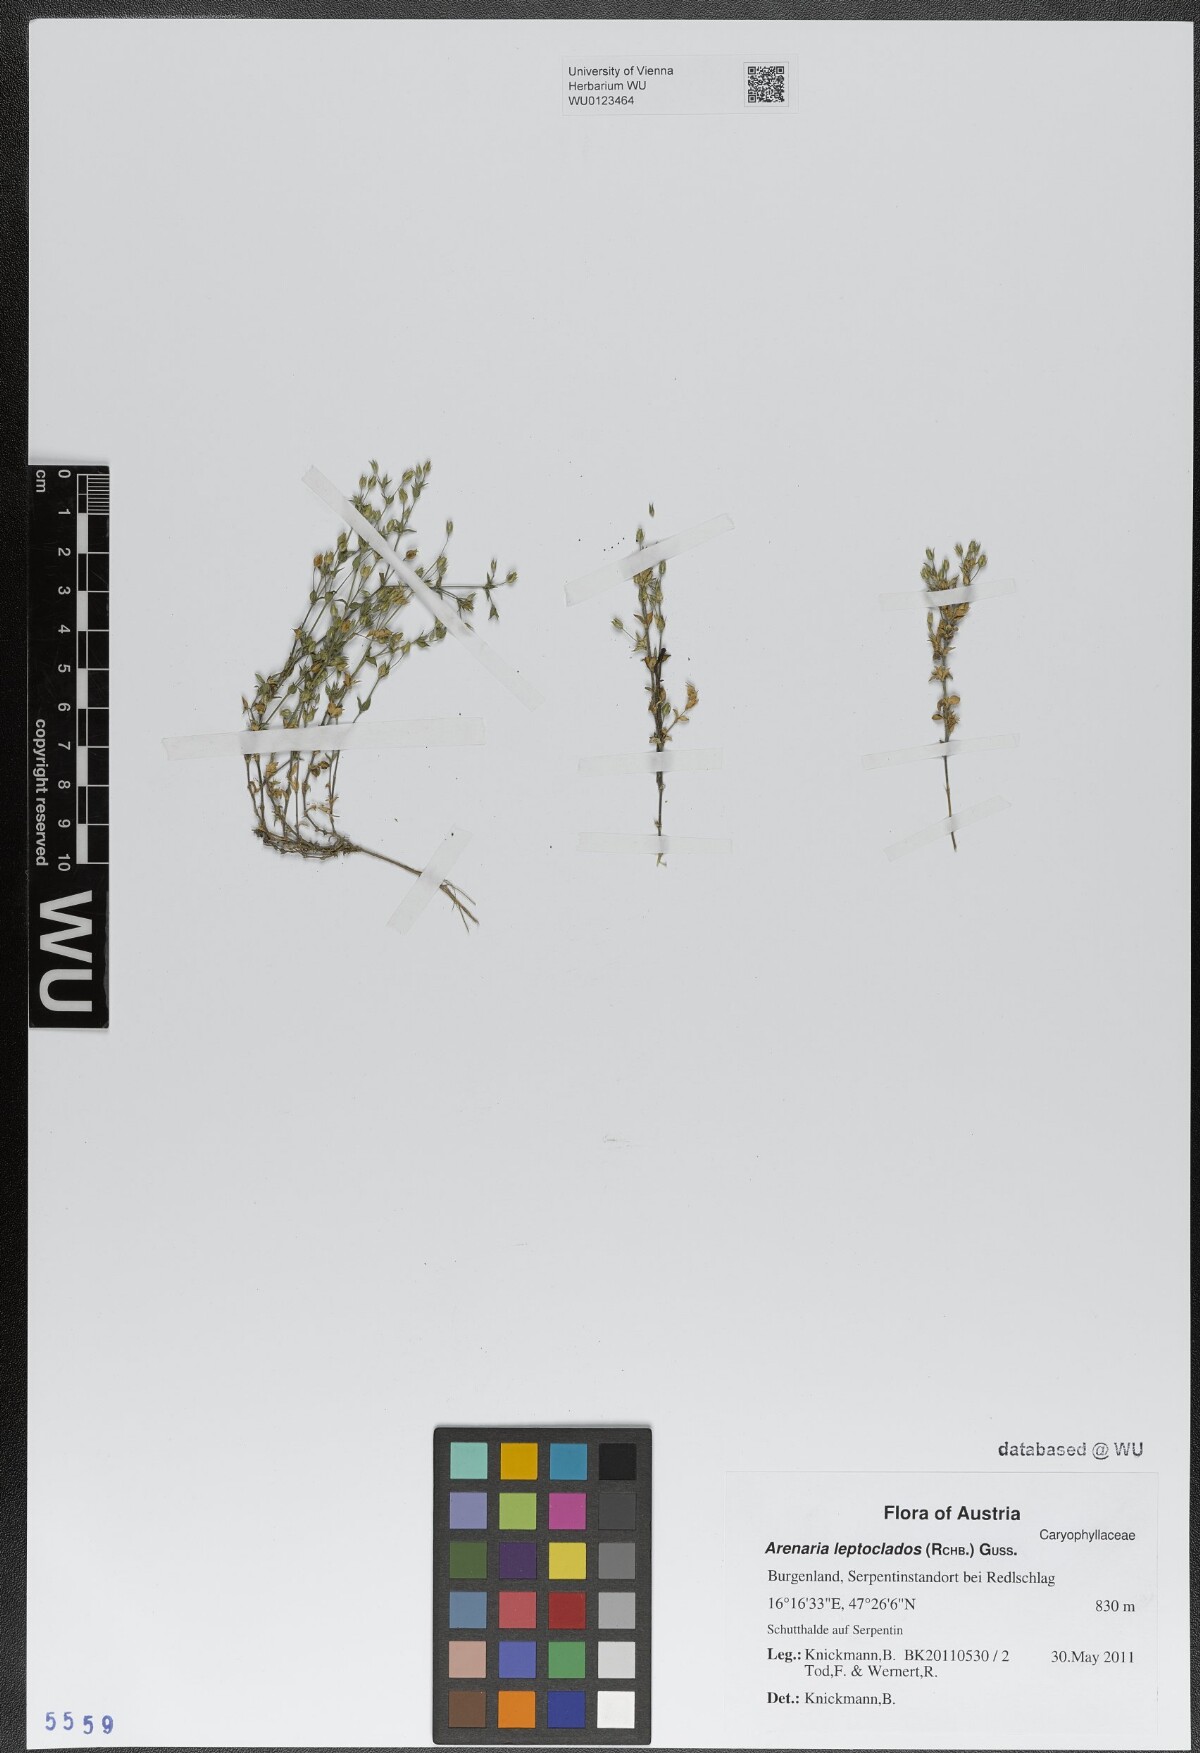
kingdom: Plantae
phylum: Tracheophyta
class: Magnoliopsida
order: Caryophyllales
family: Caryophyllaceae
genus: Arenaria
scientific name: Arenaria leptoclados
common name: Thyme-leaved sandwort
